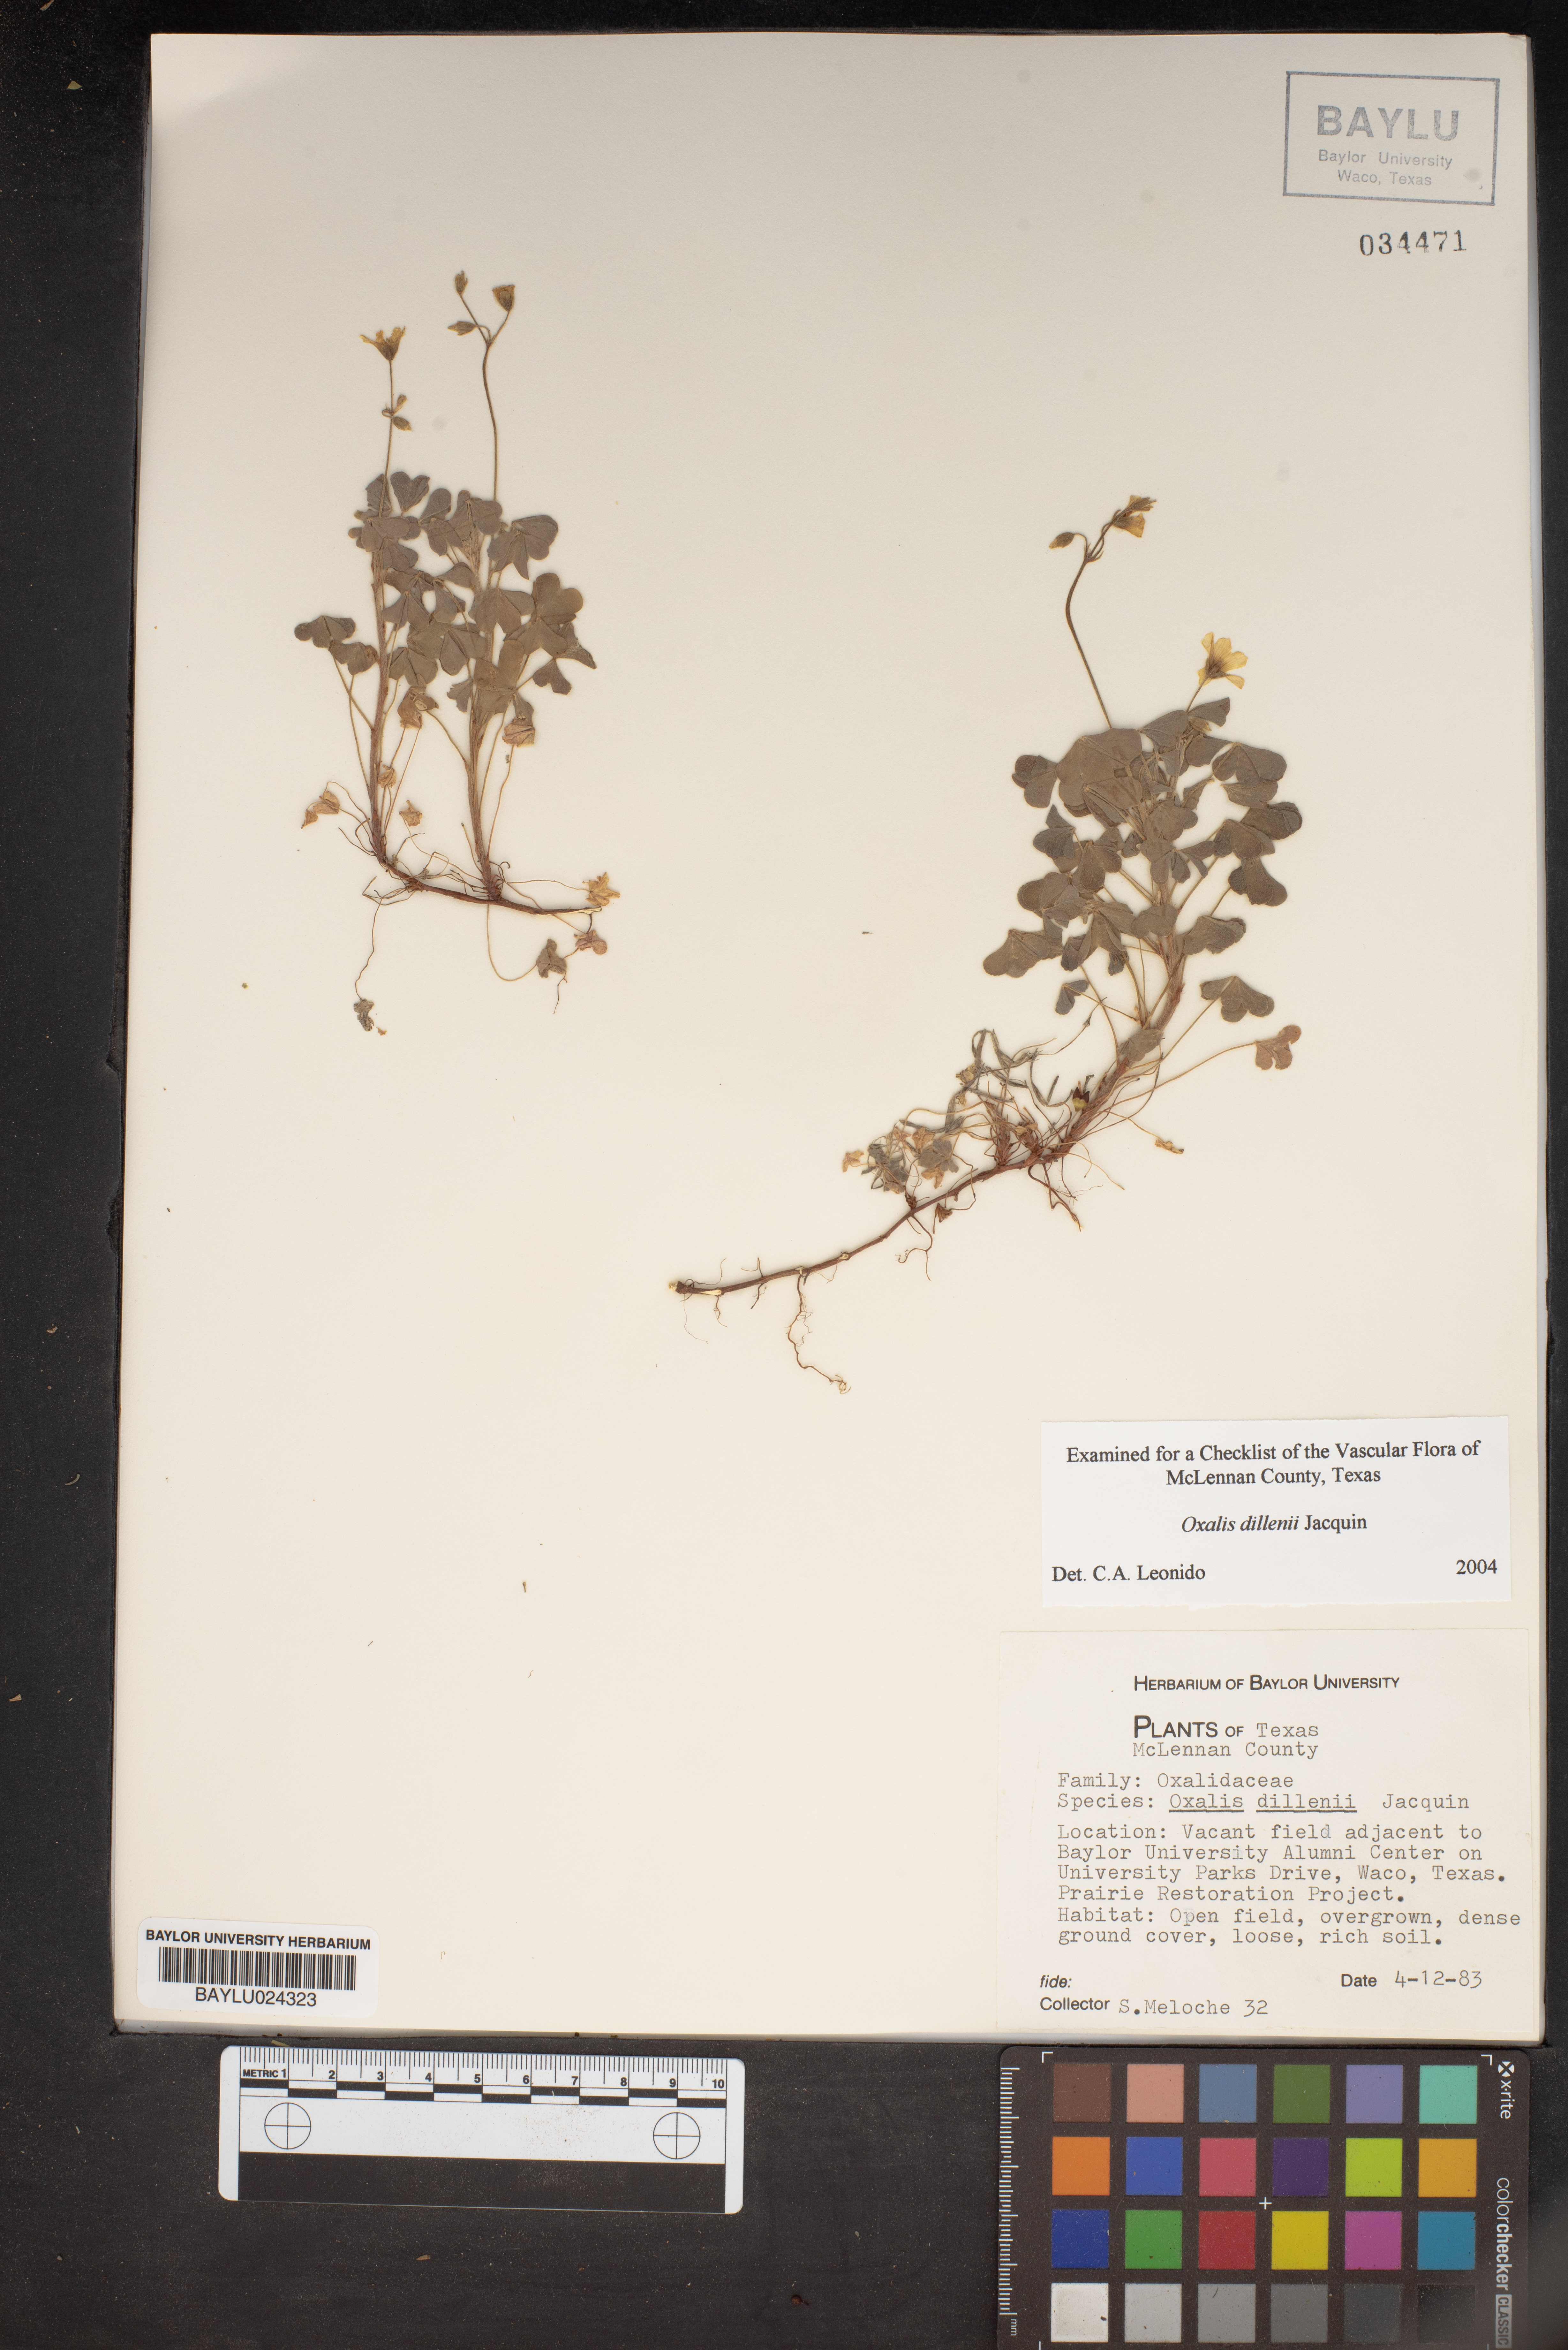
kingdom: Plantae
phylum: Tracheophyta
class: Magnoliopsida
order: Oxalidales
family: Oxalidaceae
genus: Oxalis
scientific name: Oxalis dillenii
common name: Sussex yellow-sorrel
